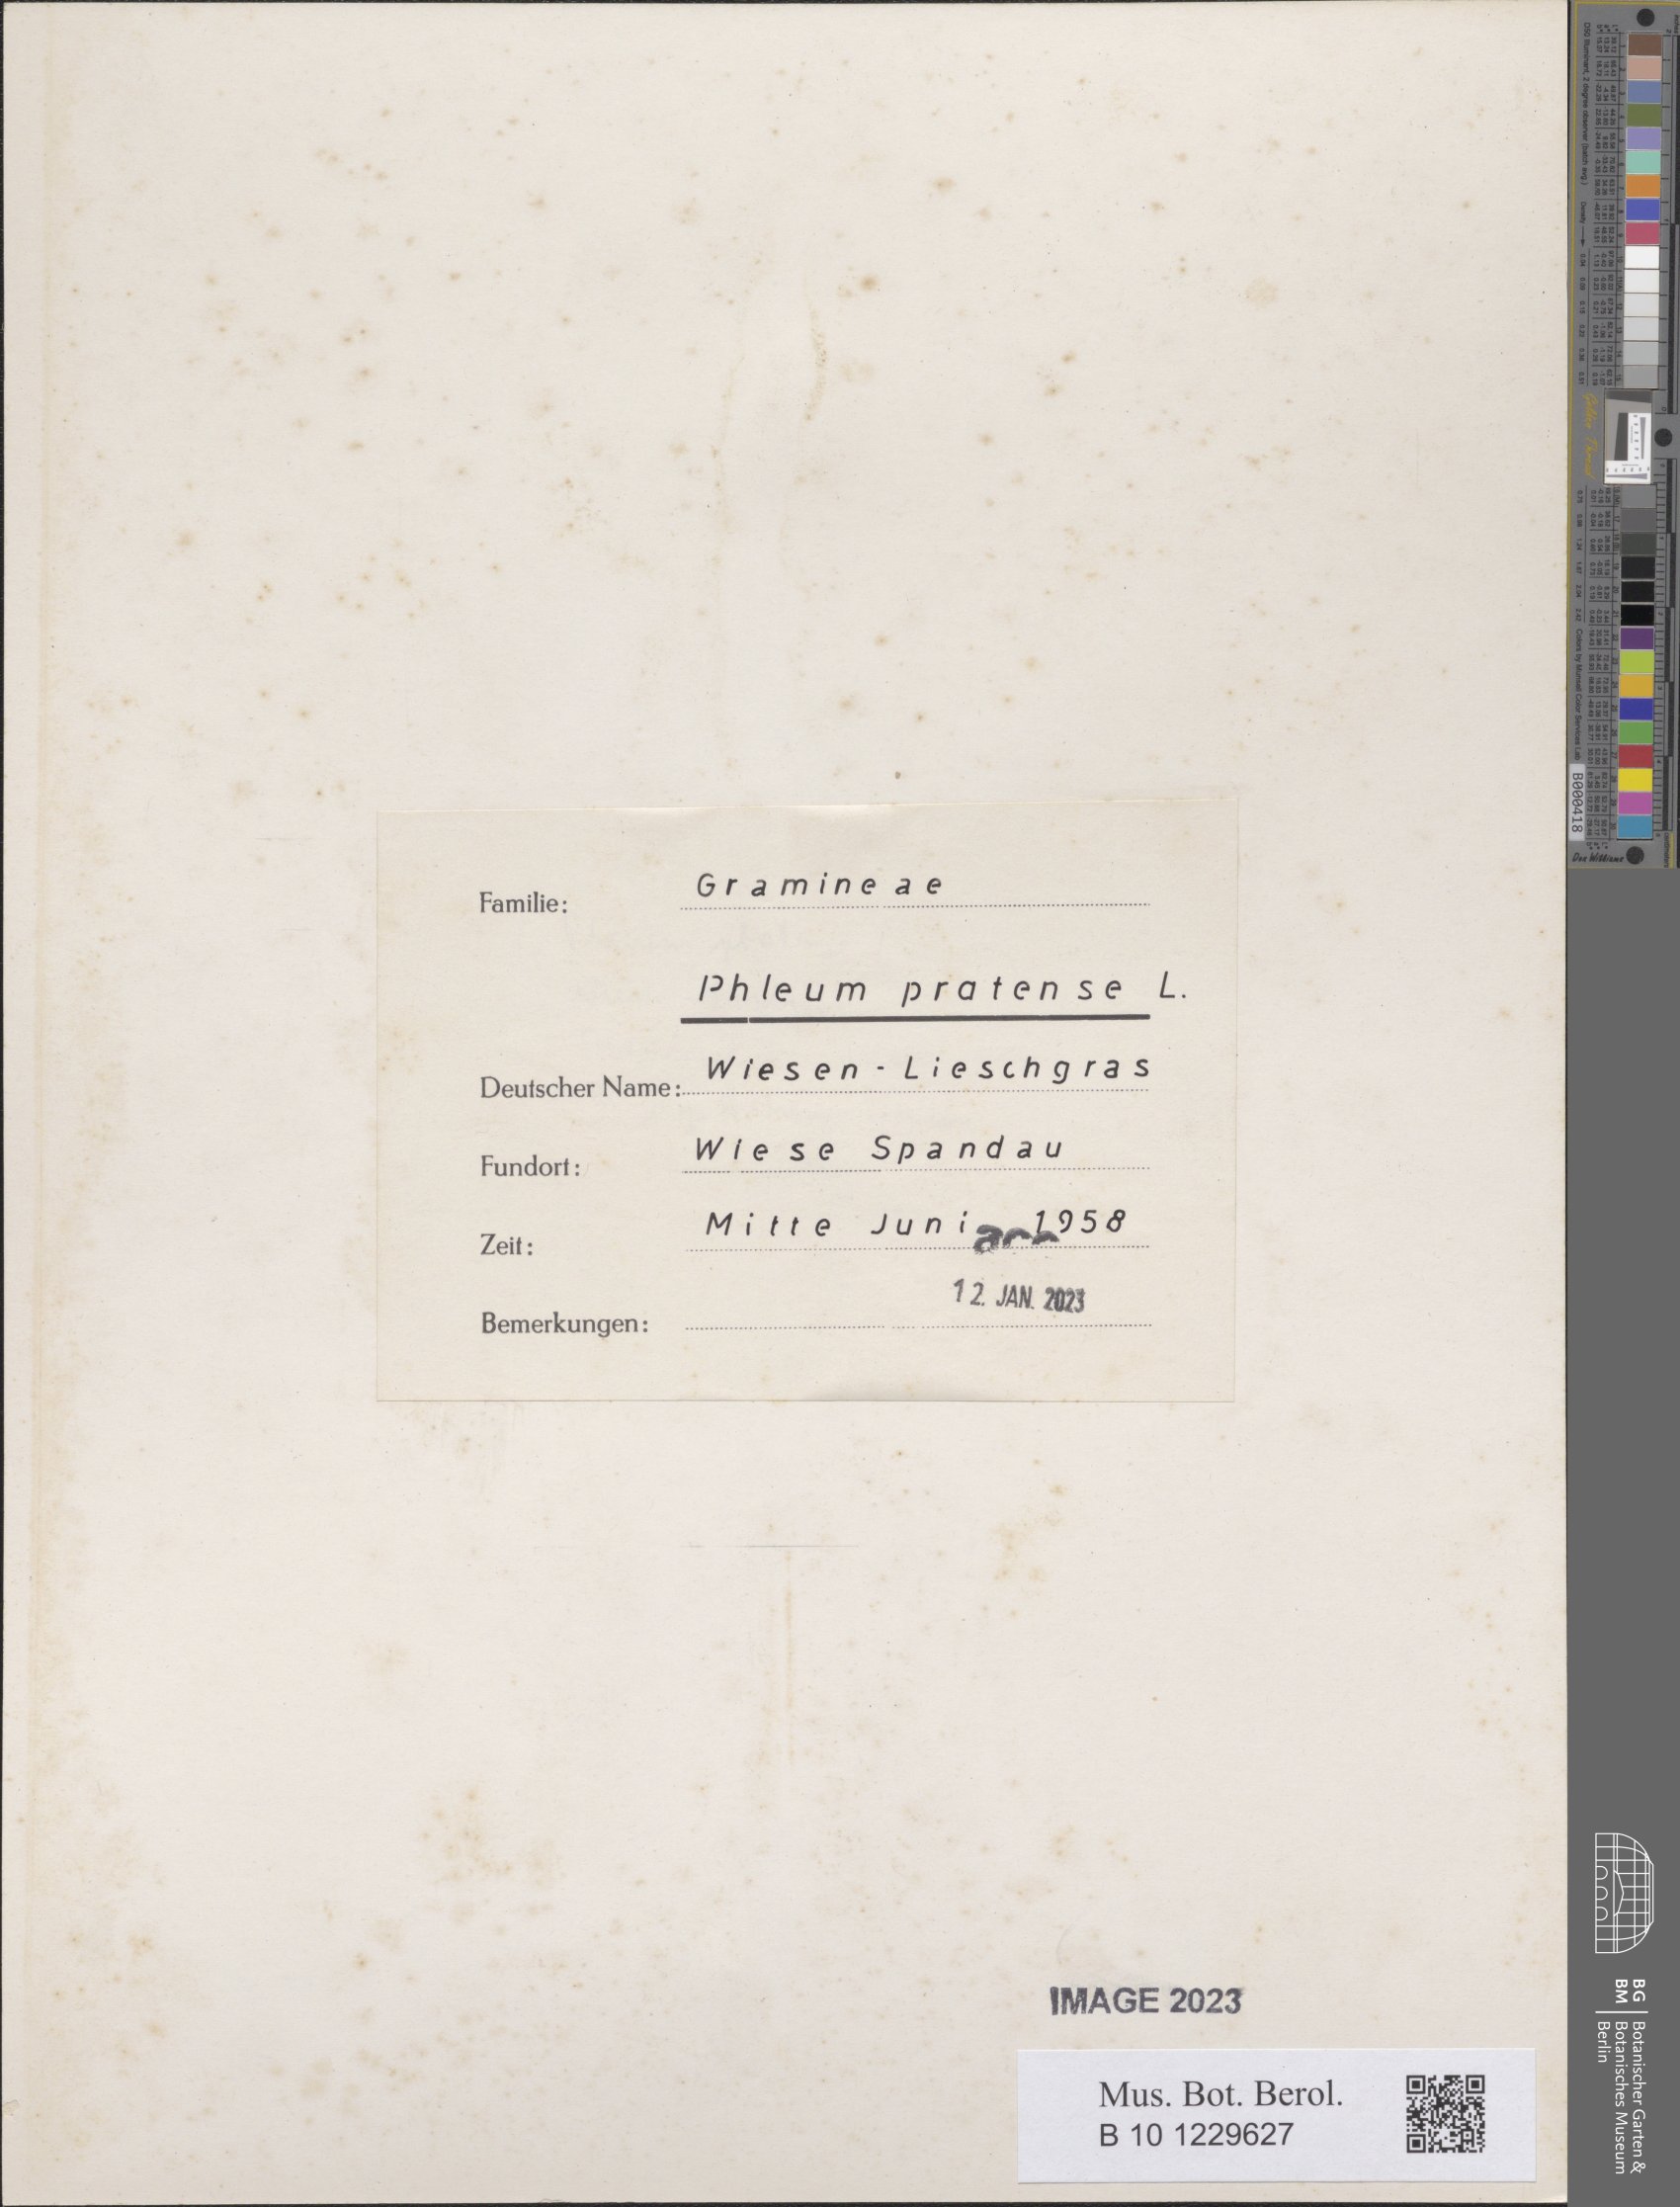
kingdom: Plantae
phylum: Tracheophyta
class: Liliopsida
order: Poales
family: Poaceae
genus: Phleum
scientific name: Phleum pratense
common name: Timothy grass
